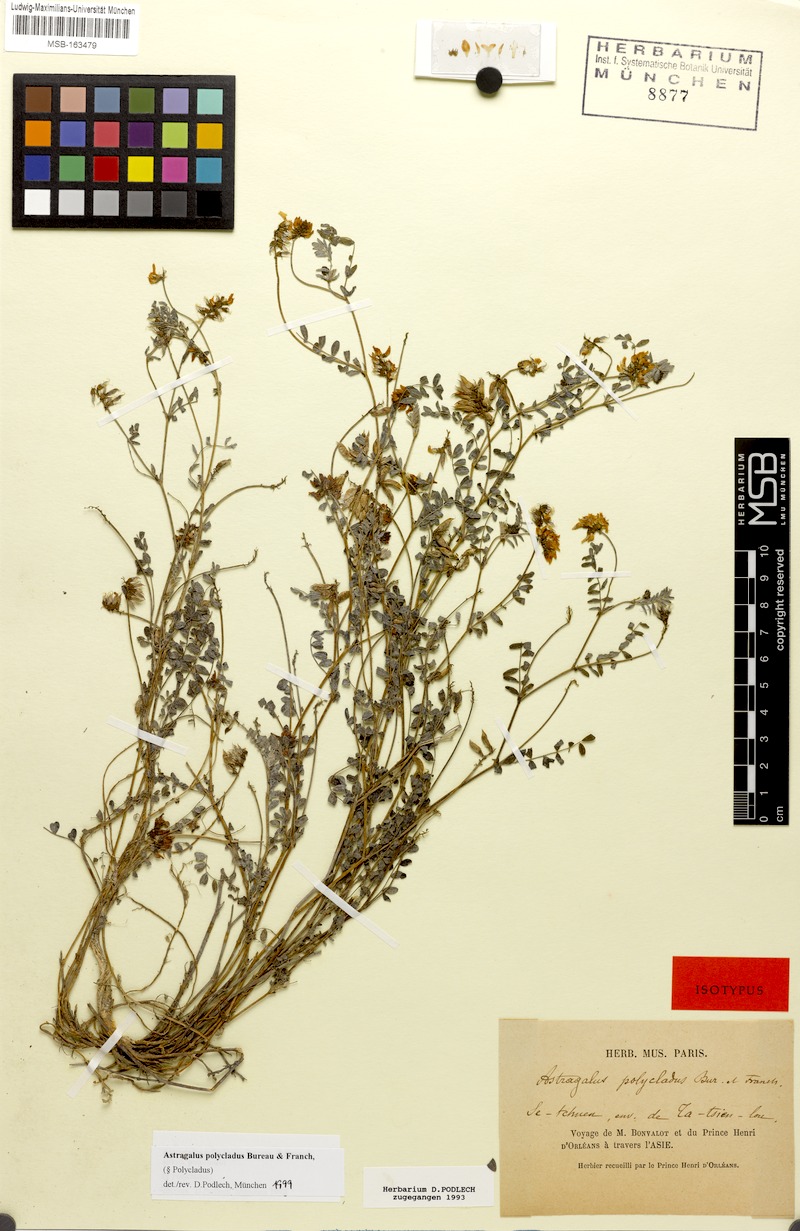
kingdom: Plantae
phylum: Tracheophyta
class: Magnoliopsida
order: Fabales
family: Fabaceae
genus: Astragalus
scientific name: Astragalus polycladus
